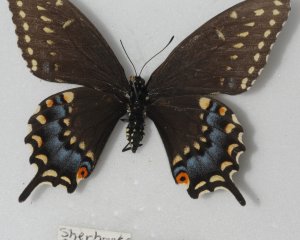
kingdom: Animalia
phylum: Arthropoda
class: Insecta
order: Lepidoptera
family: Papilionidae
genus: Papilio
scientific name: Papilio polyxenes
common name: Black Swallowtail
